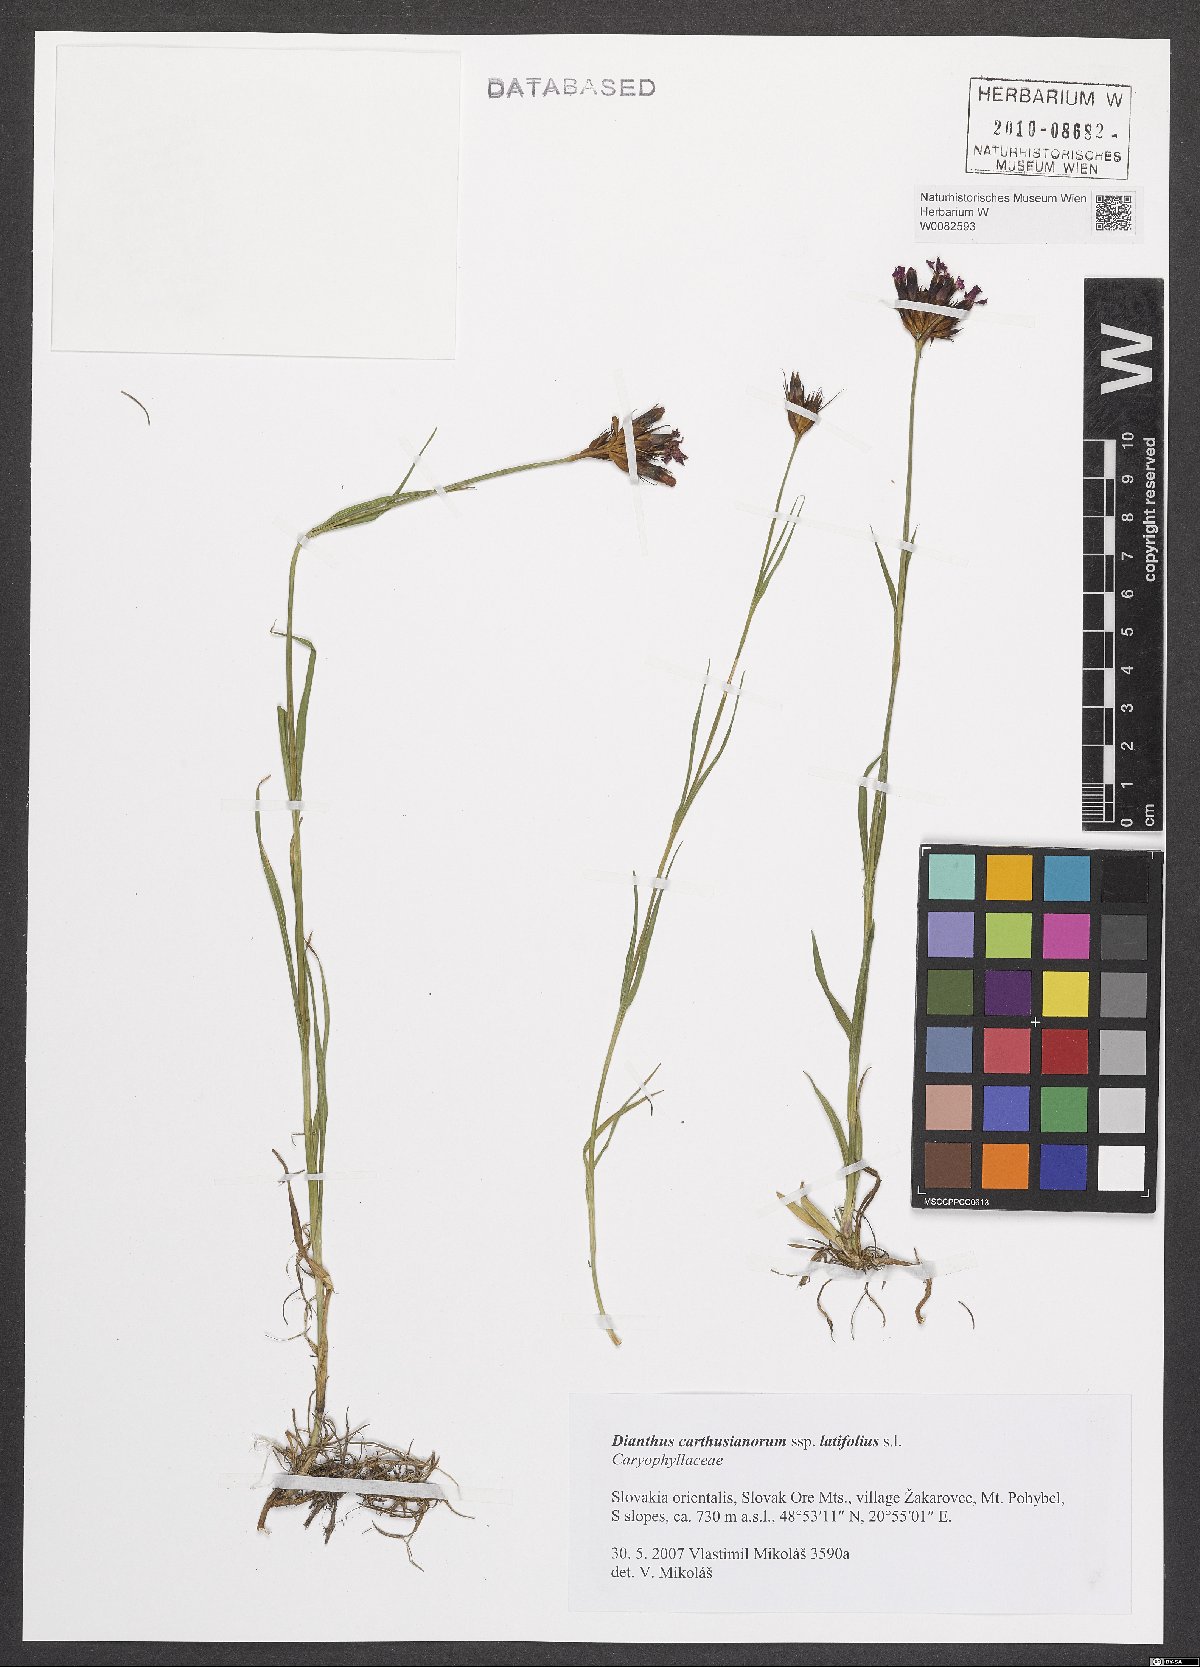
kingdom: Plantae
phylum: Tracheophyta
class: Magnoliopsida
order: Caryophyllales
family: Caryophyllaceae
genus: Dianthus
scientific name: Dianthus carthusianorum
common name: Carthusian pink
